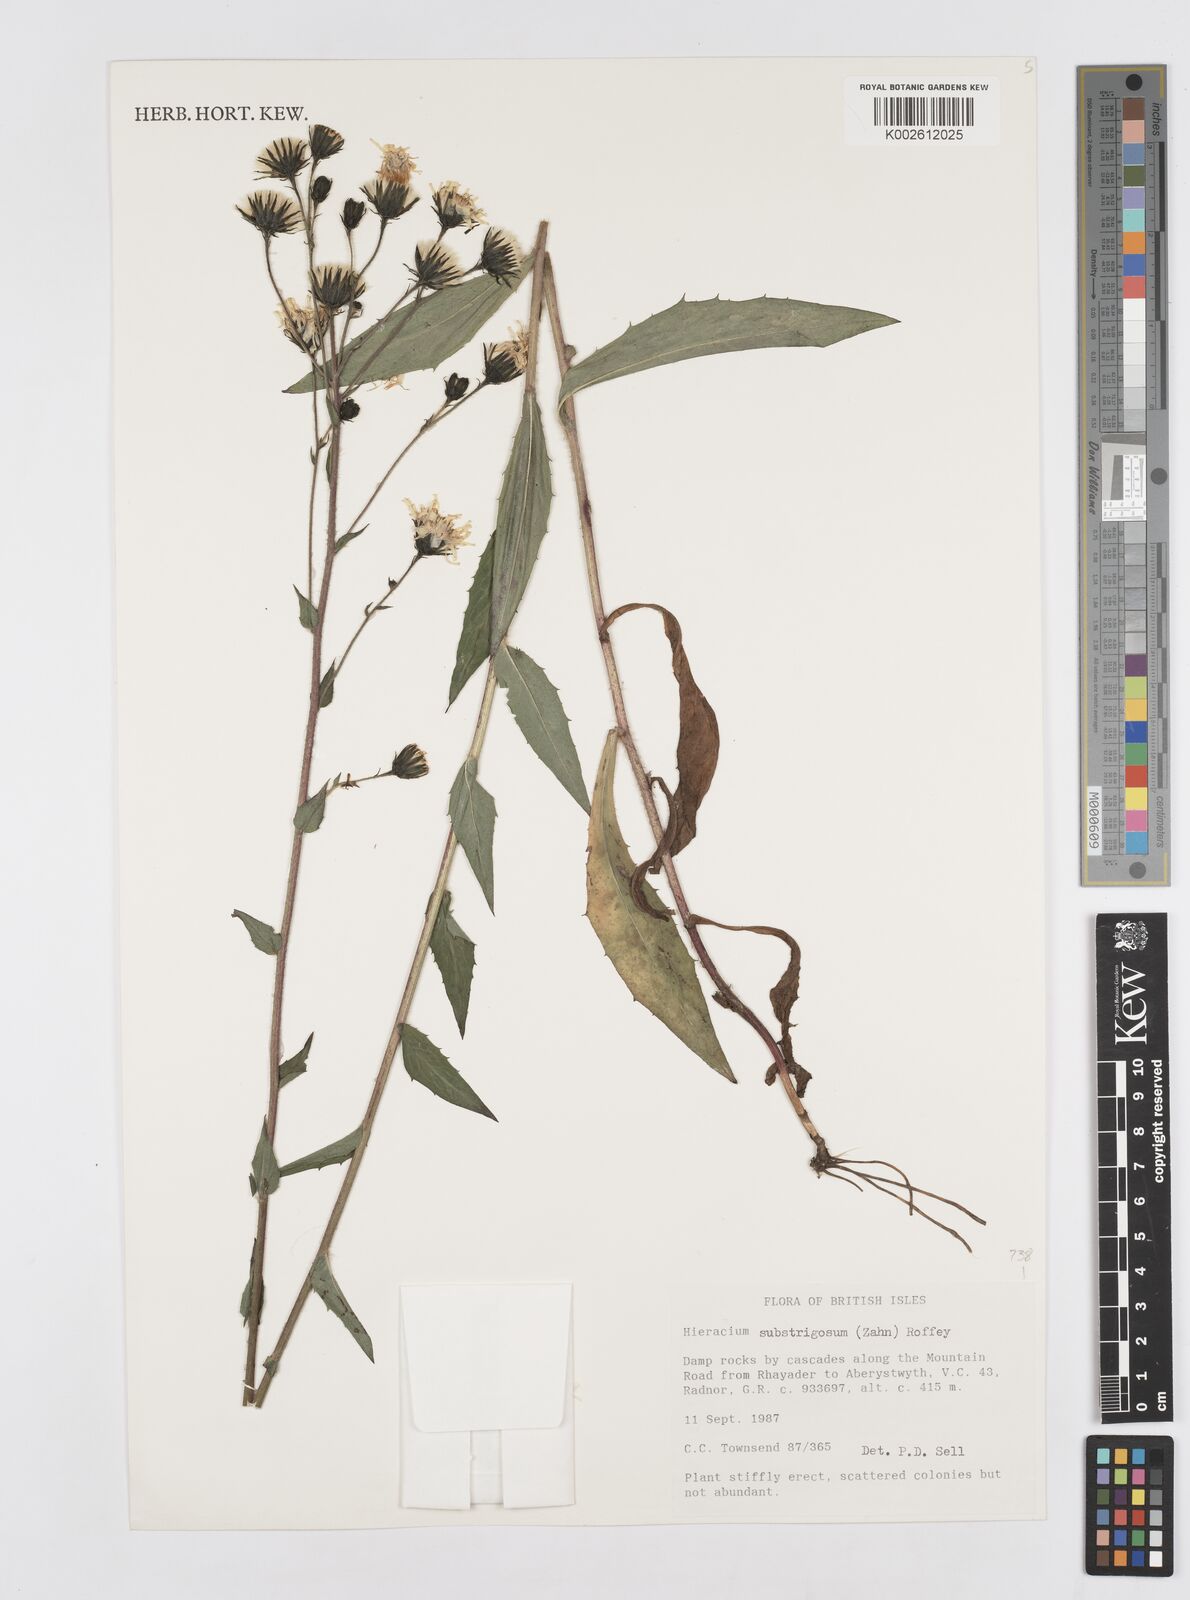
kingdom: Plantae
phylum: Tracheophyta
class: Magnoliopsida
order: Asterales
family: Asteraceae
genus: Hieracium
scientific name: Hieracium substrigosum
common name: Long-haired hawkweed
